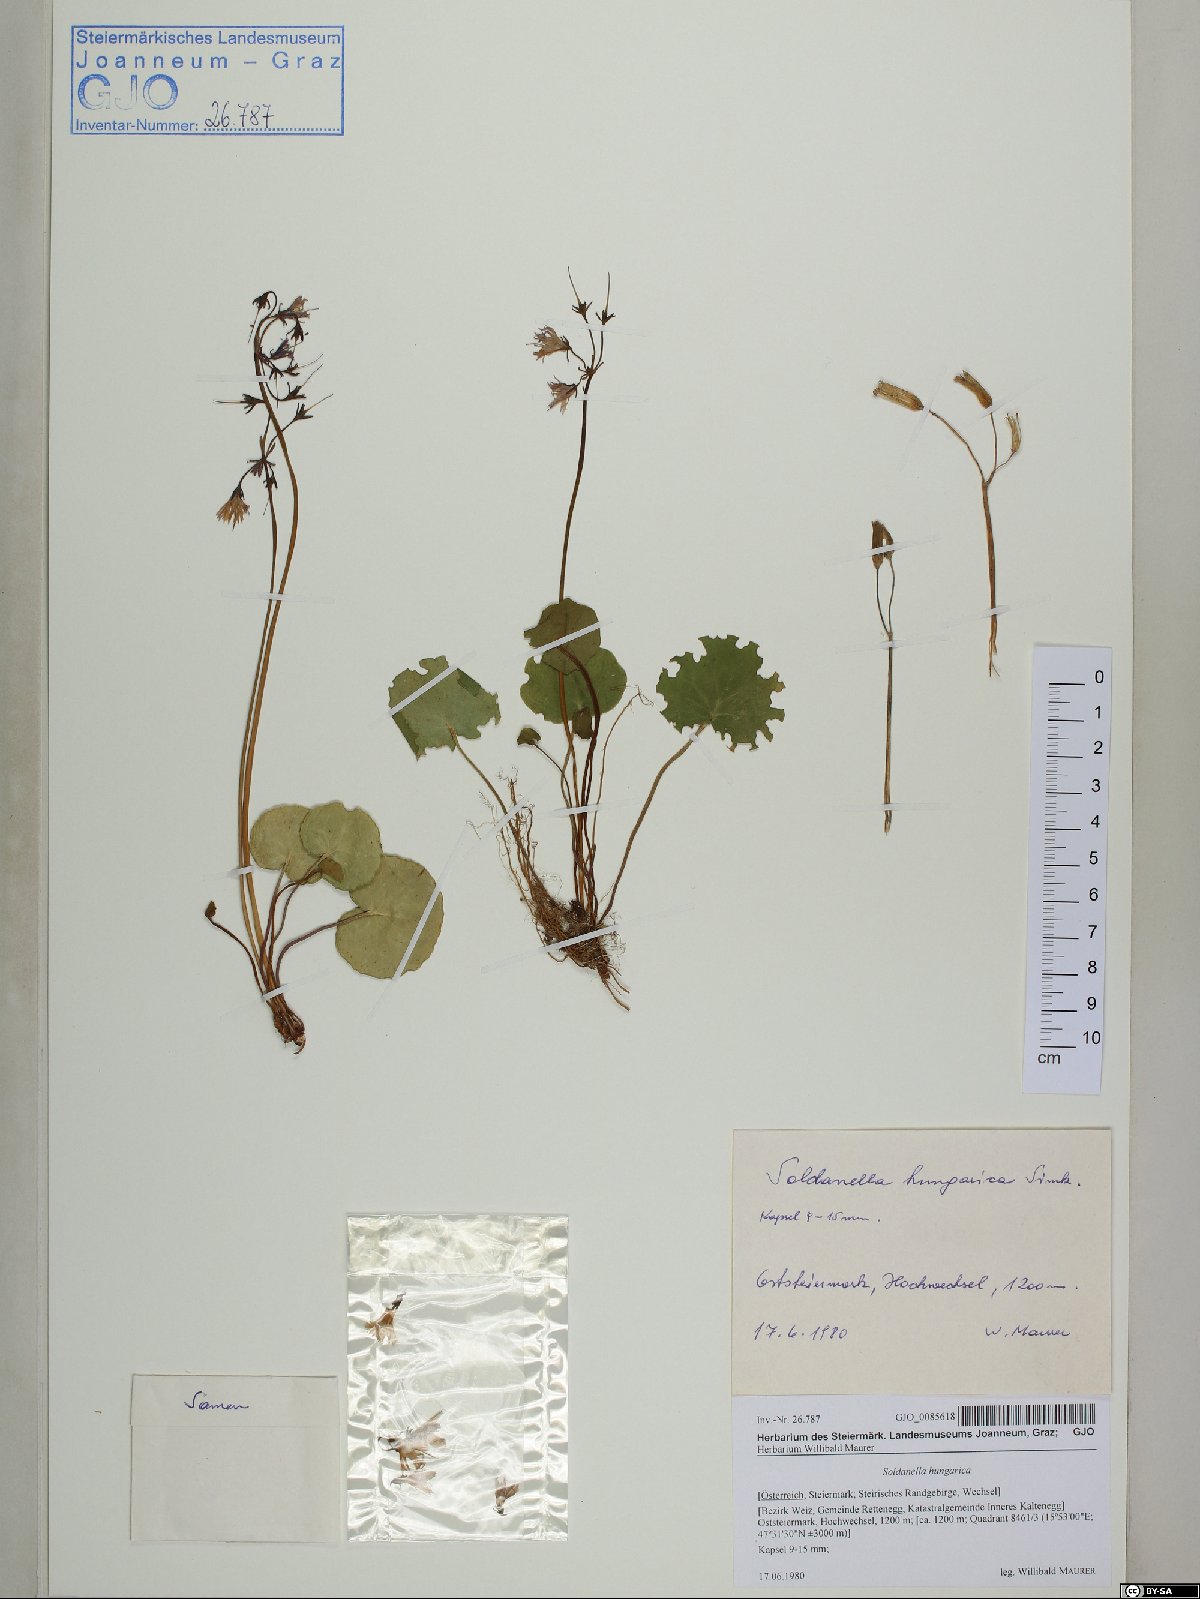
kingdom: Plantae
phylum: Tracheophyta
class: Magnoliopsida
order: Ericales
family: Primulaceae
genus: Soldanella
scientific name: Soldanella hungarica
